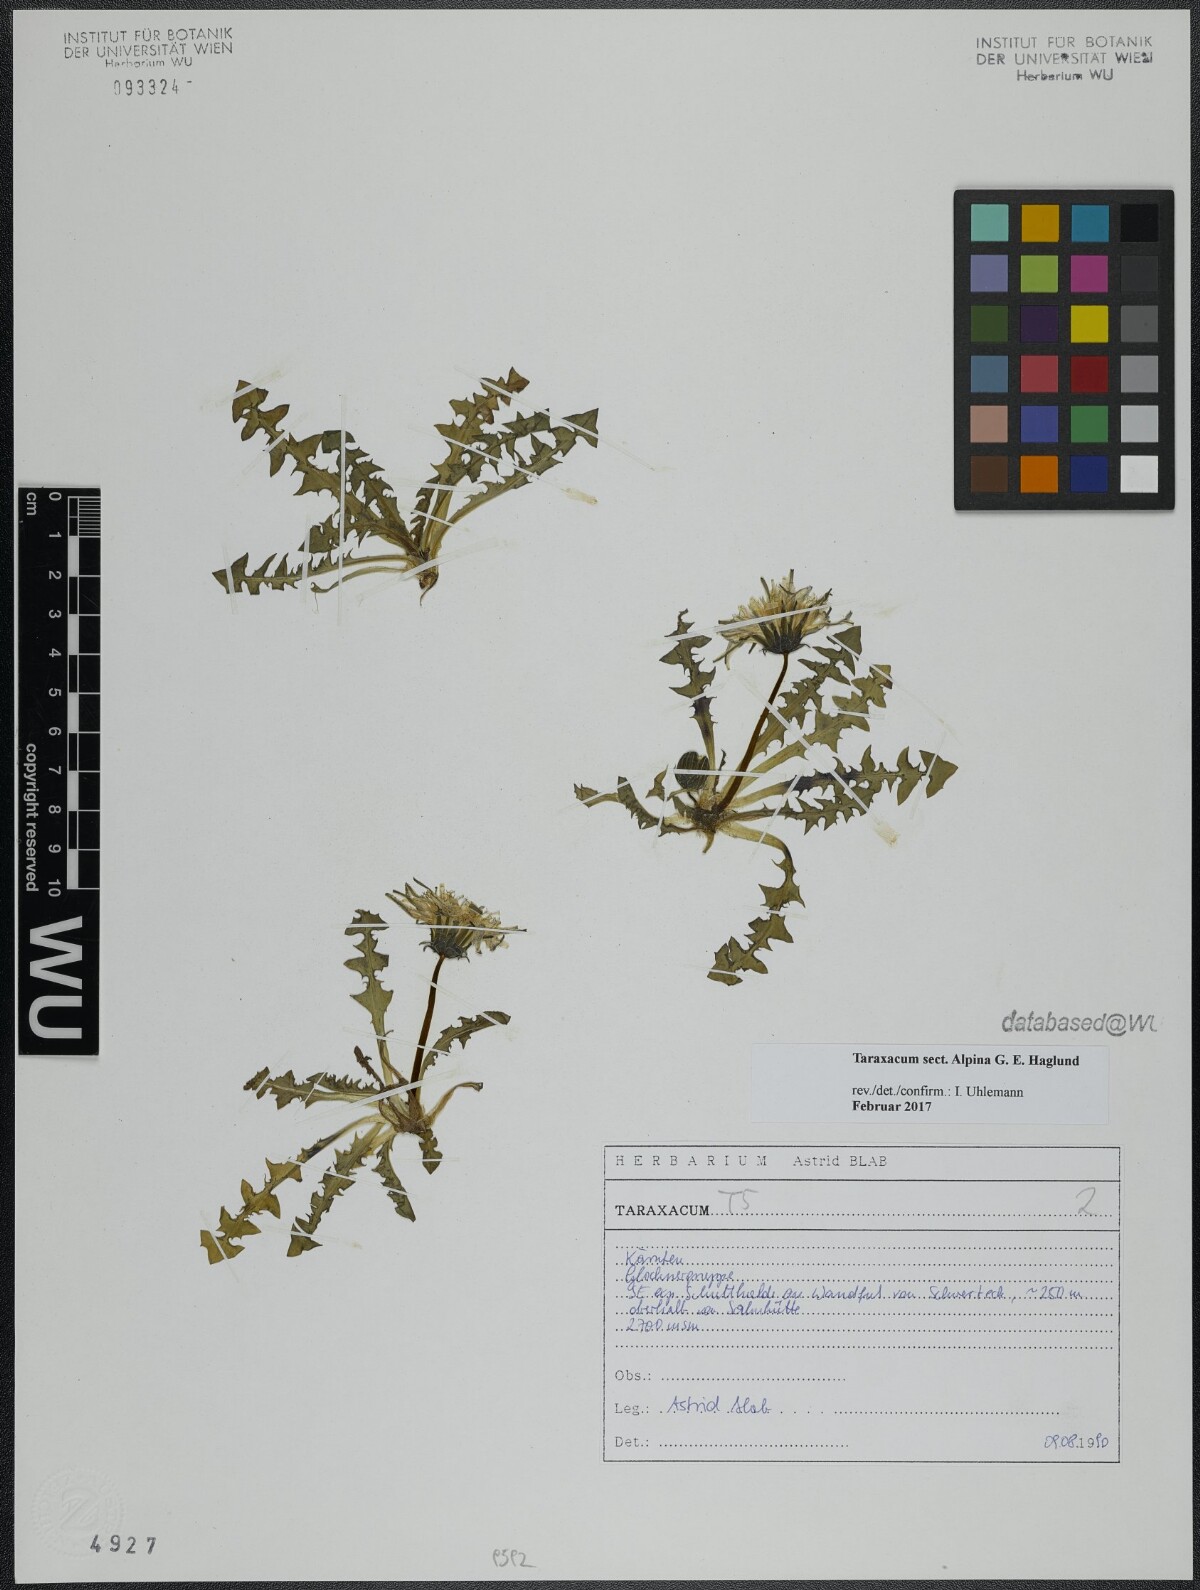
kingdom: Plantae
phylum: Tracheophyta
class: Magnoliopsida
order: Asterales
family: Asteraceae
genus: Taraxacum
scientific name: Taraxacum
